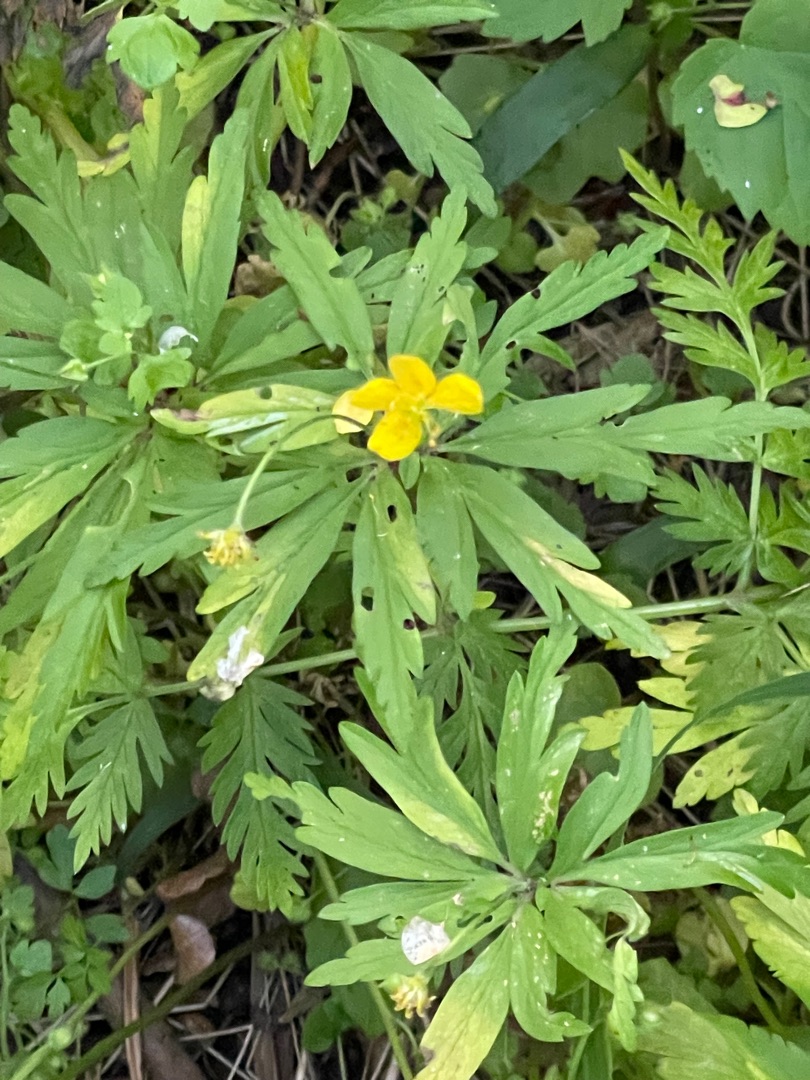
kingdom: Plantae
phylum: Tracheophyta
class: Magnoliopsida
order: Ranunculales
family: Ranunculaceae
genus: Anemone
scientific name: Anemone ranunculoides
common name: Gul anemone
